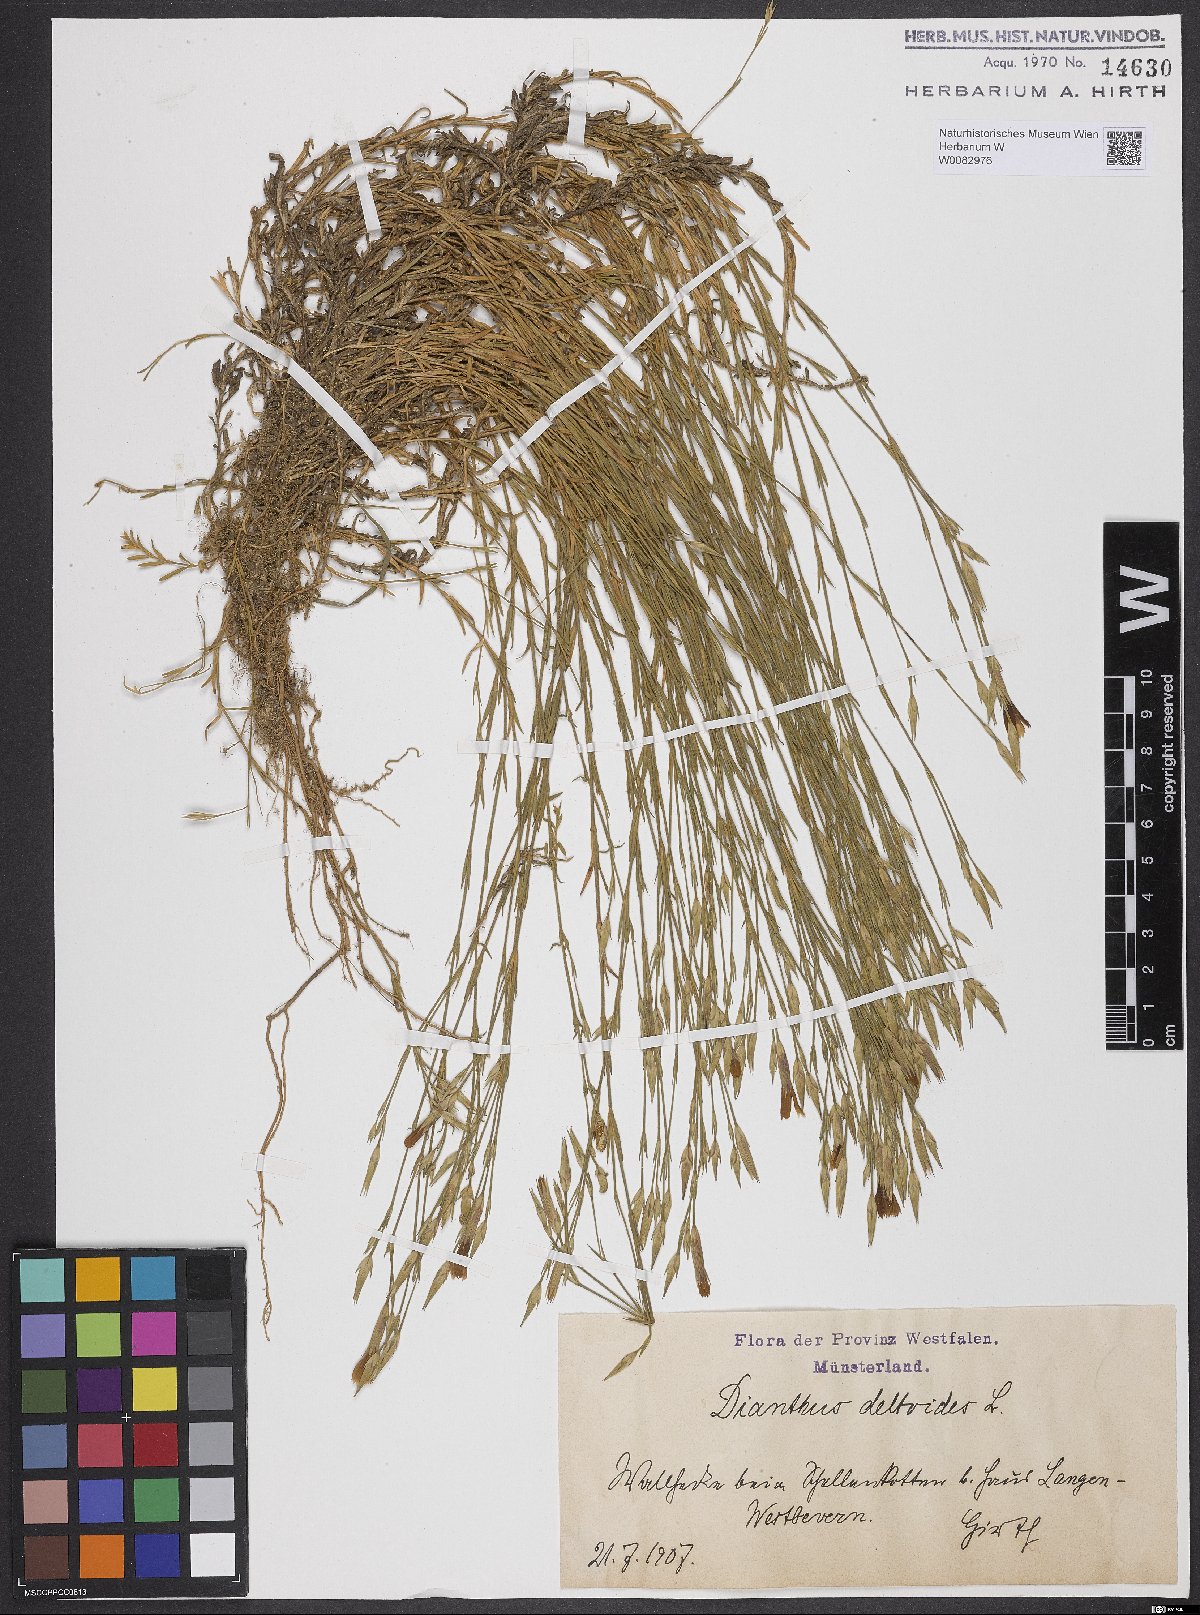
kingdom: Plantae
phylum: Tracheophyta
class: Magnoliopsida
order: Caryophyllales
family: Caryophyllaceae
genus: Dianthus
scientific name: Dianthus deltoides
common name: Maiden pink
